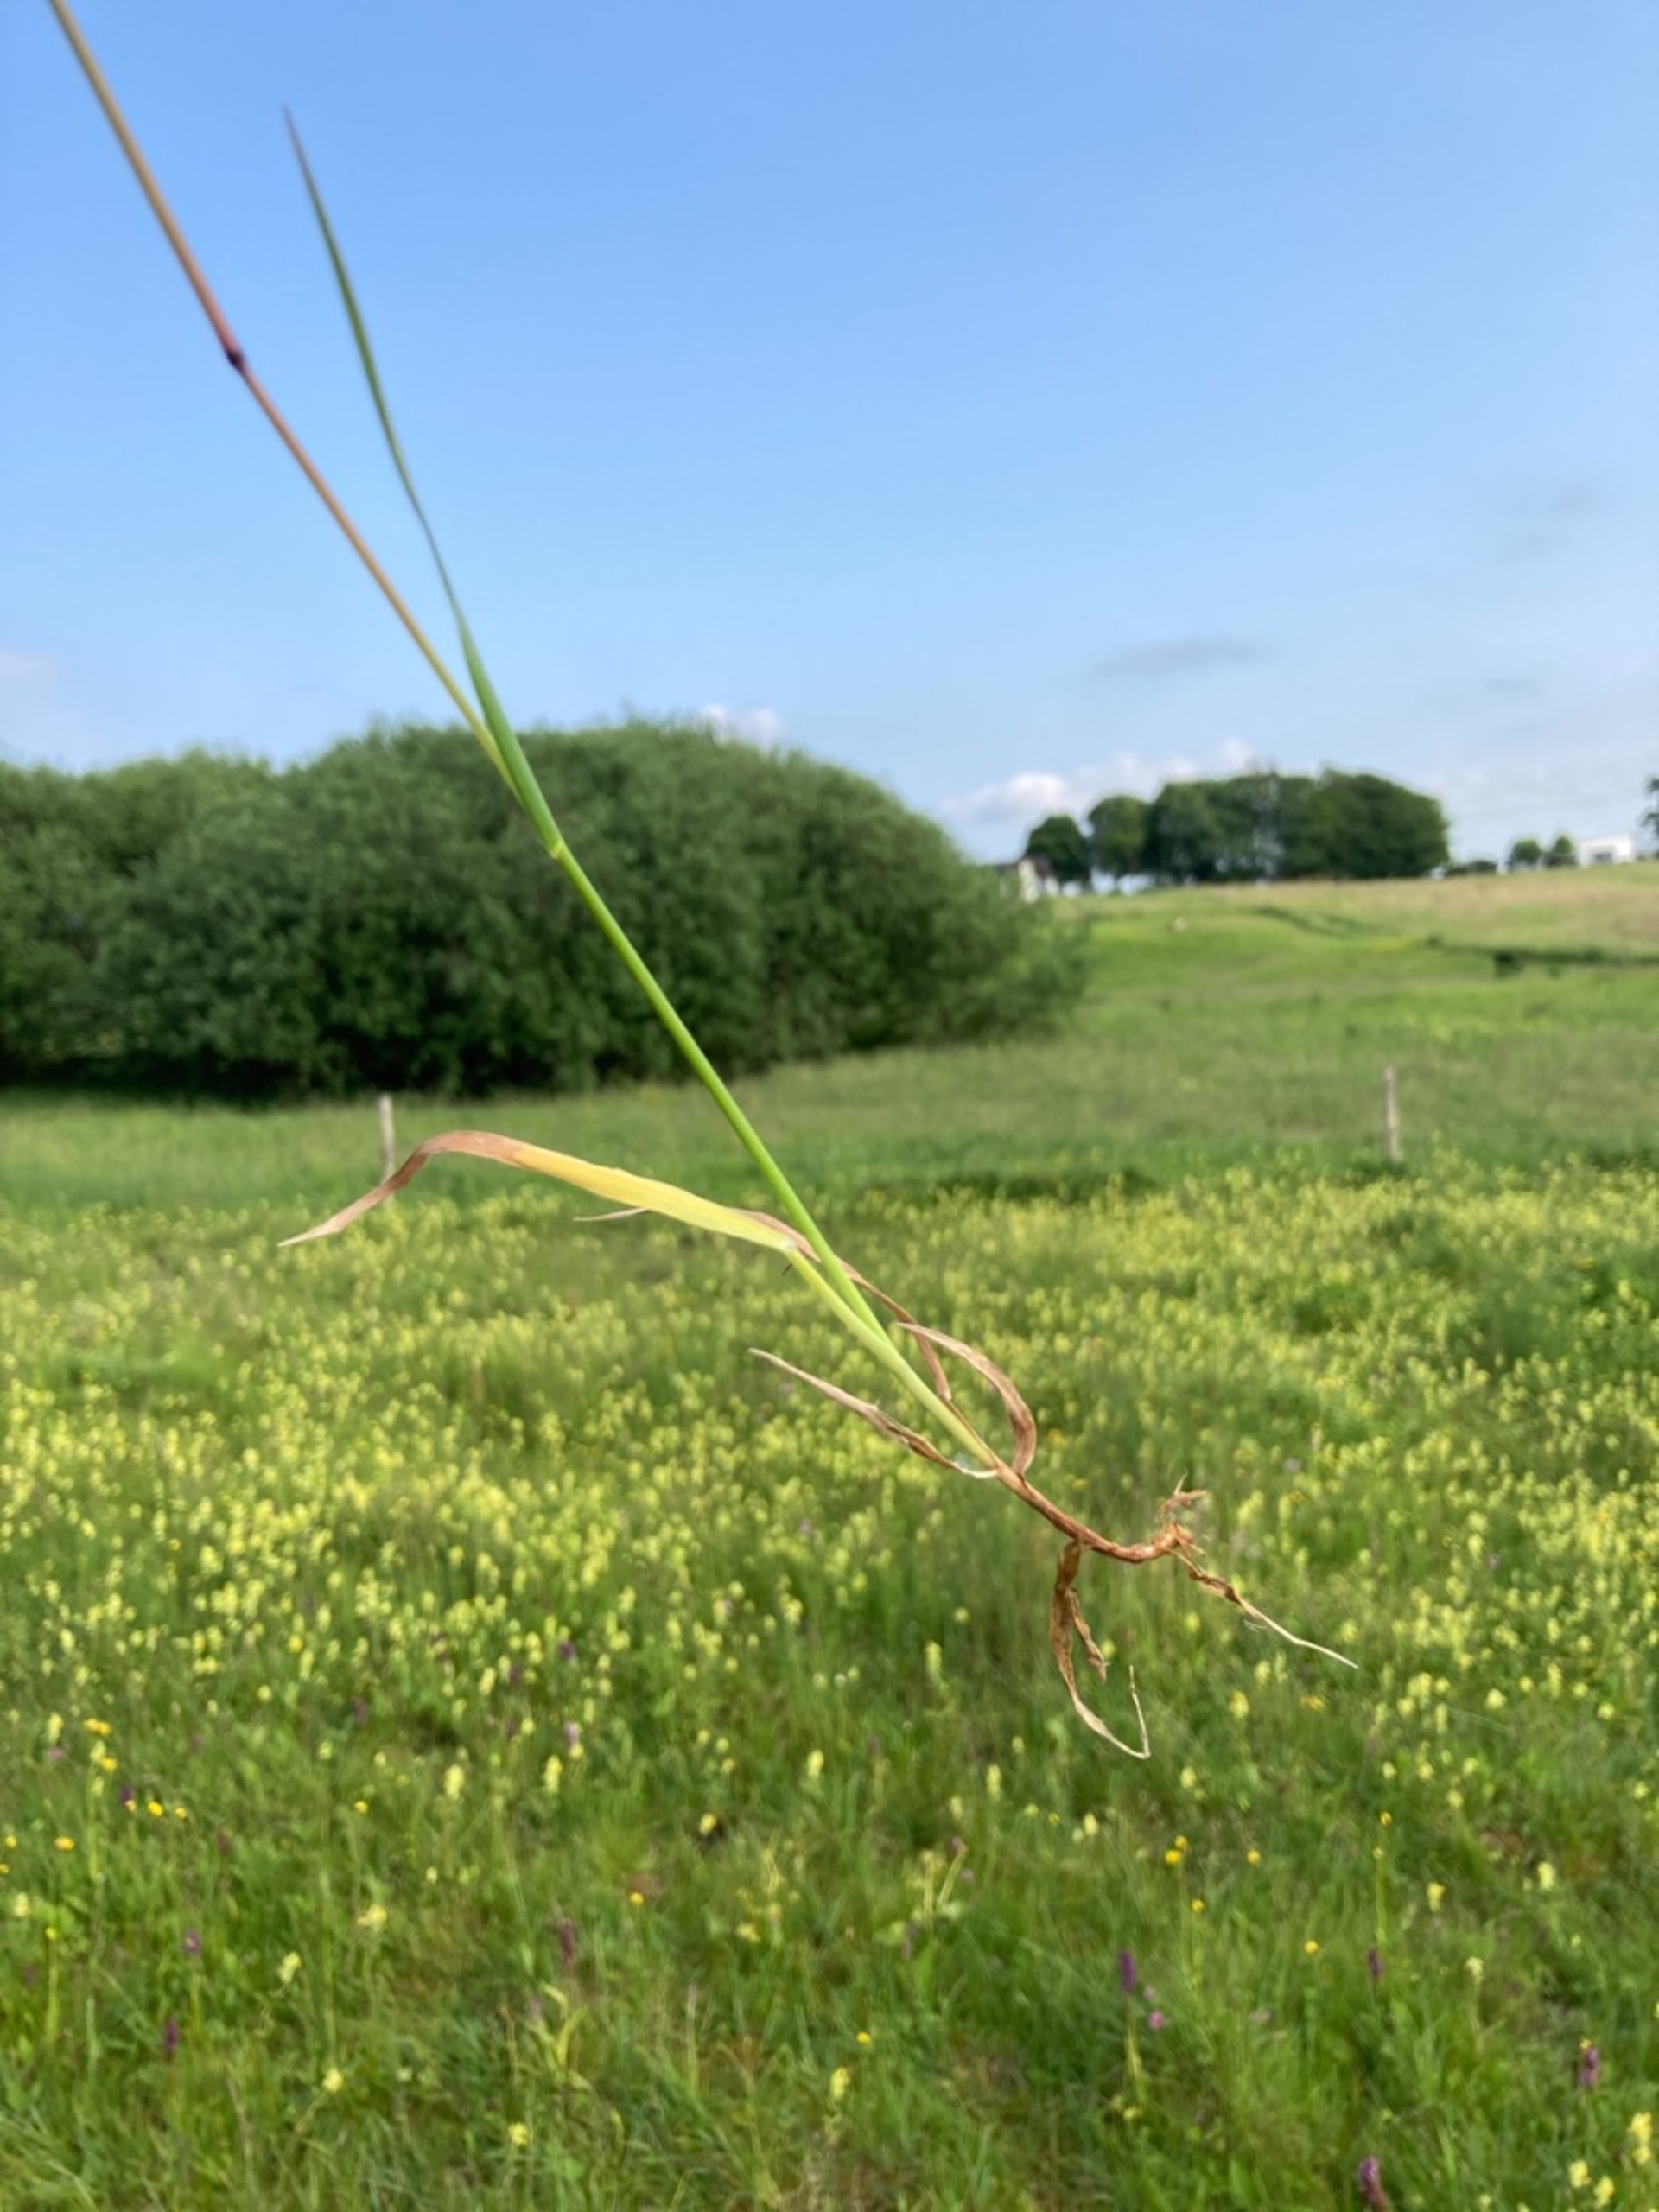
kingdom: Plantae
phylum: Tracheophyta
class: Liliopsida
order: Poales
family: Poaceae
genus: Briza
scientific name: Briza media
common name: Hjertegræs
